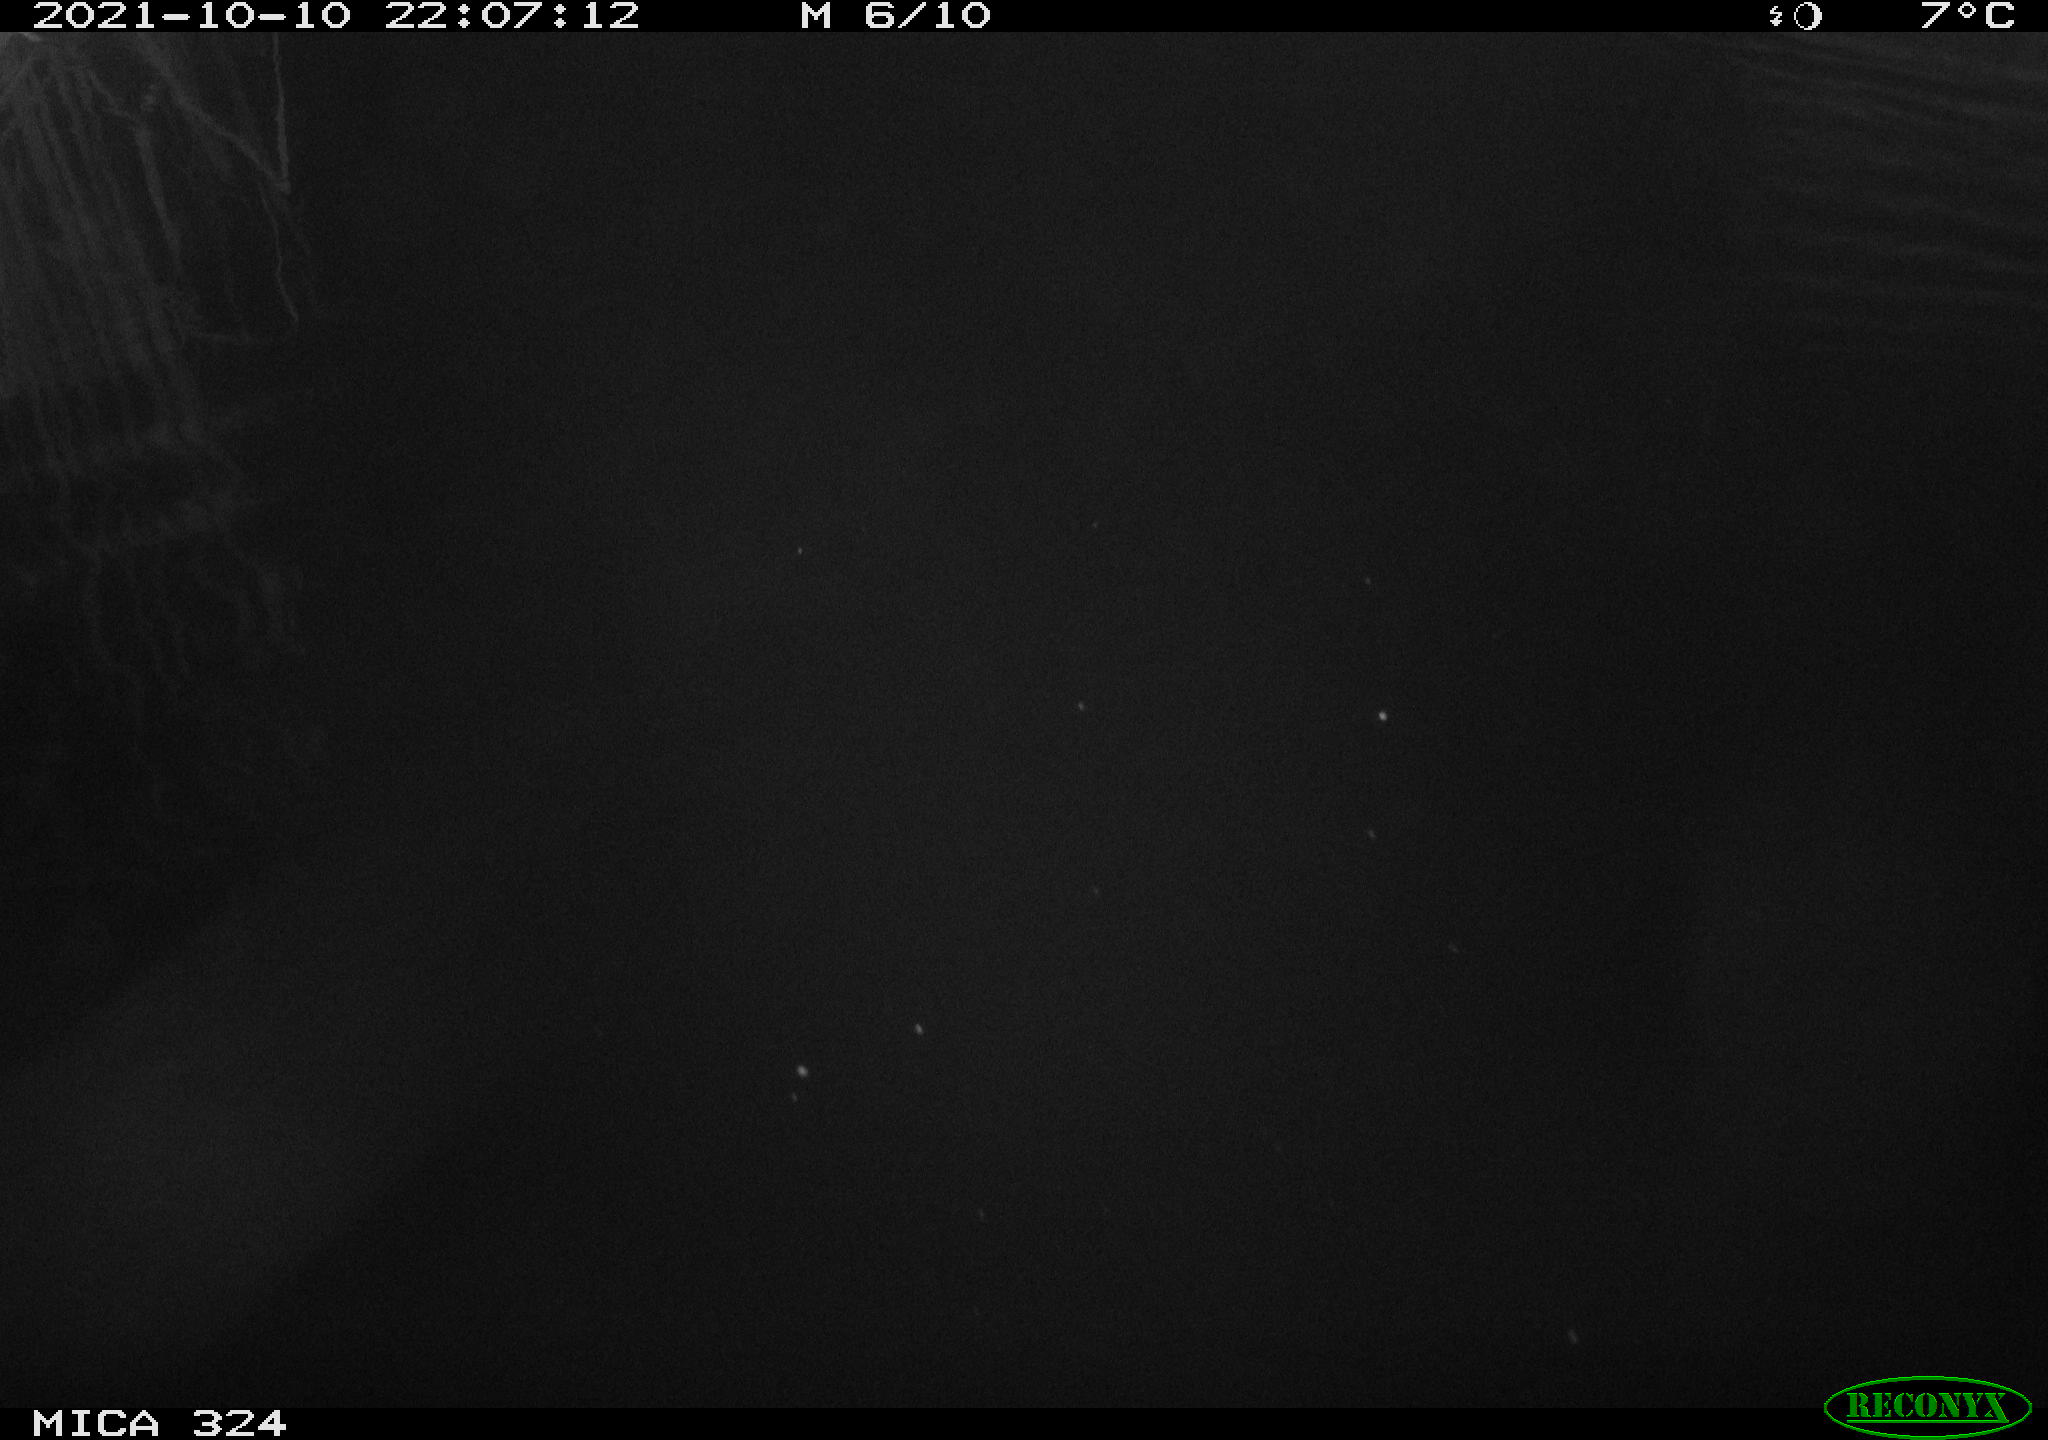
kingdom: Animalia
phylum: Chordata
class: Mammalia
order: Rodentia
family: Cricetidae
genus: Ondatra
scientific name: Ondatra zibethicus
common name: Muskrat
